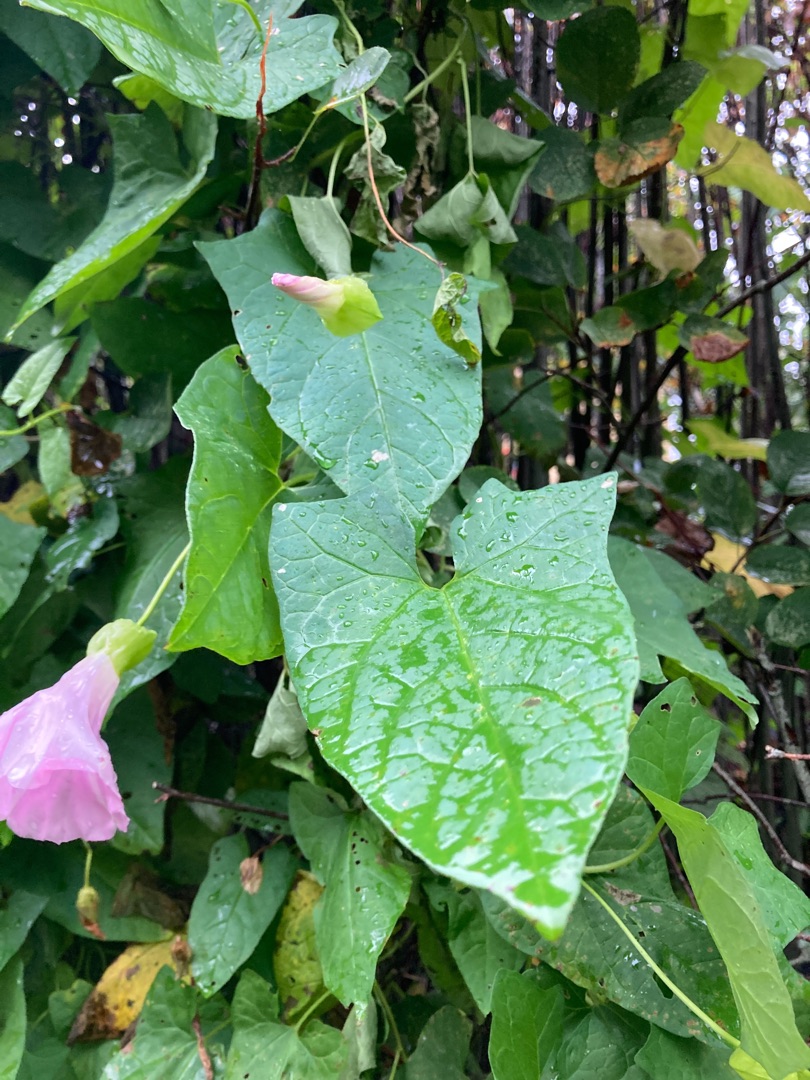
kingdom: Plantae
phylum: Tracheophyta
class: Magnoliopsida
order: Solanales
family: Convolvulaceae
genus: Calystegia
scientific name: Calystegia pulchra
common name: Have-snerle
